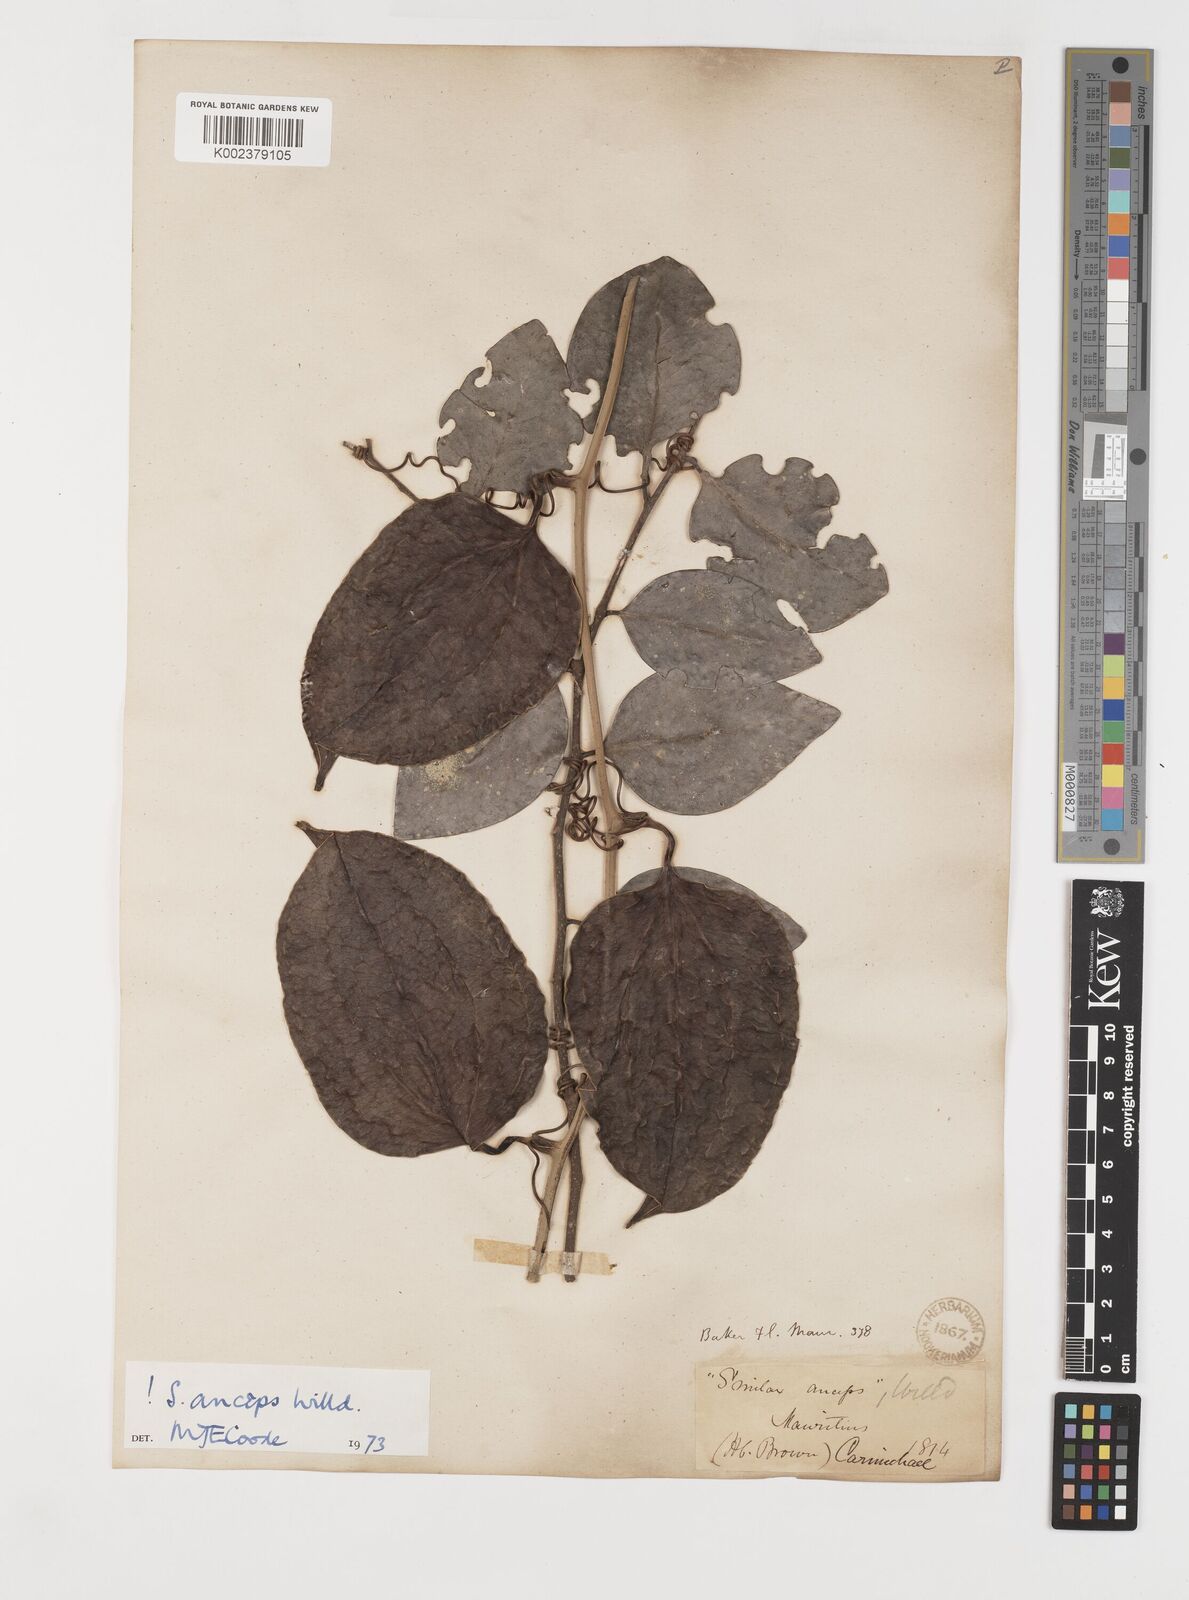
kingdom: Plantae
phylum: Tracheophyta
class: Liliopsida
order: Liliales
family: Smilacaceae
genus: Smilax
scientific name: Smilax anceps
